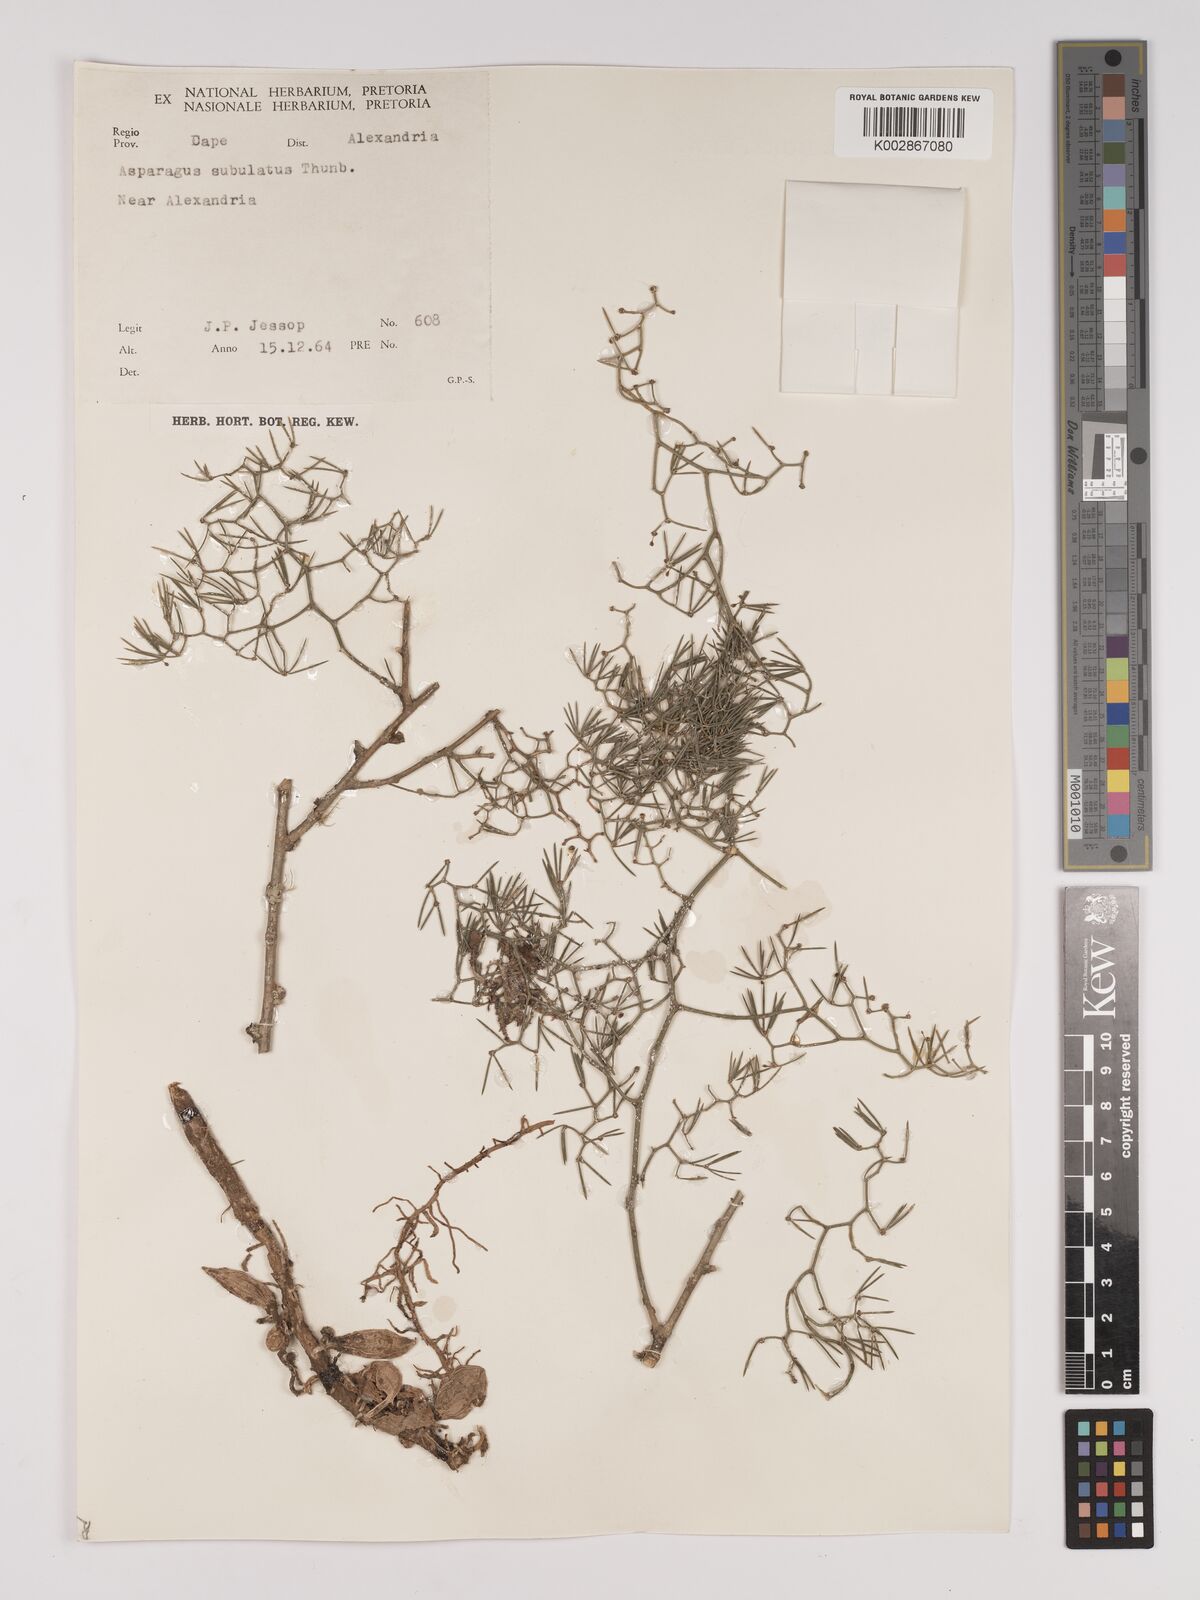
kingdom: Plantae
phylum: Tracheophyta
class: Liliopsida
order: Asparagales
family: Asparagaceae
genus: Asparagus
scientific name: Asparagus subulatus
